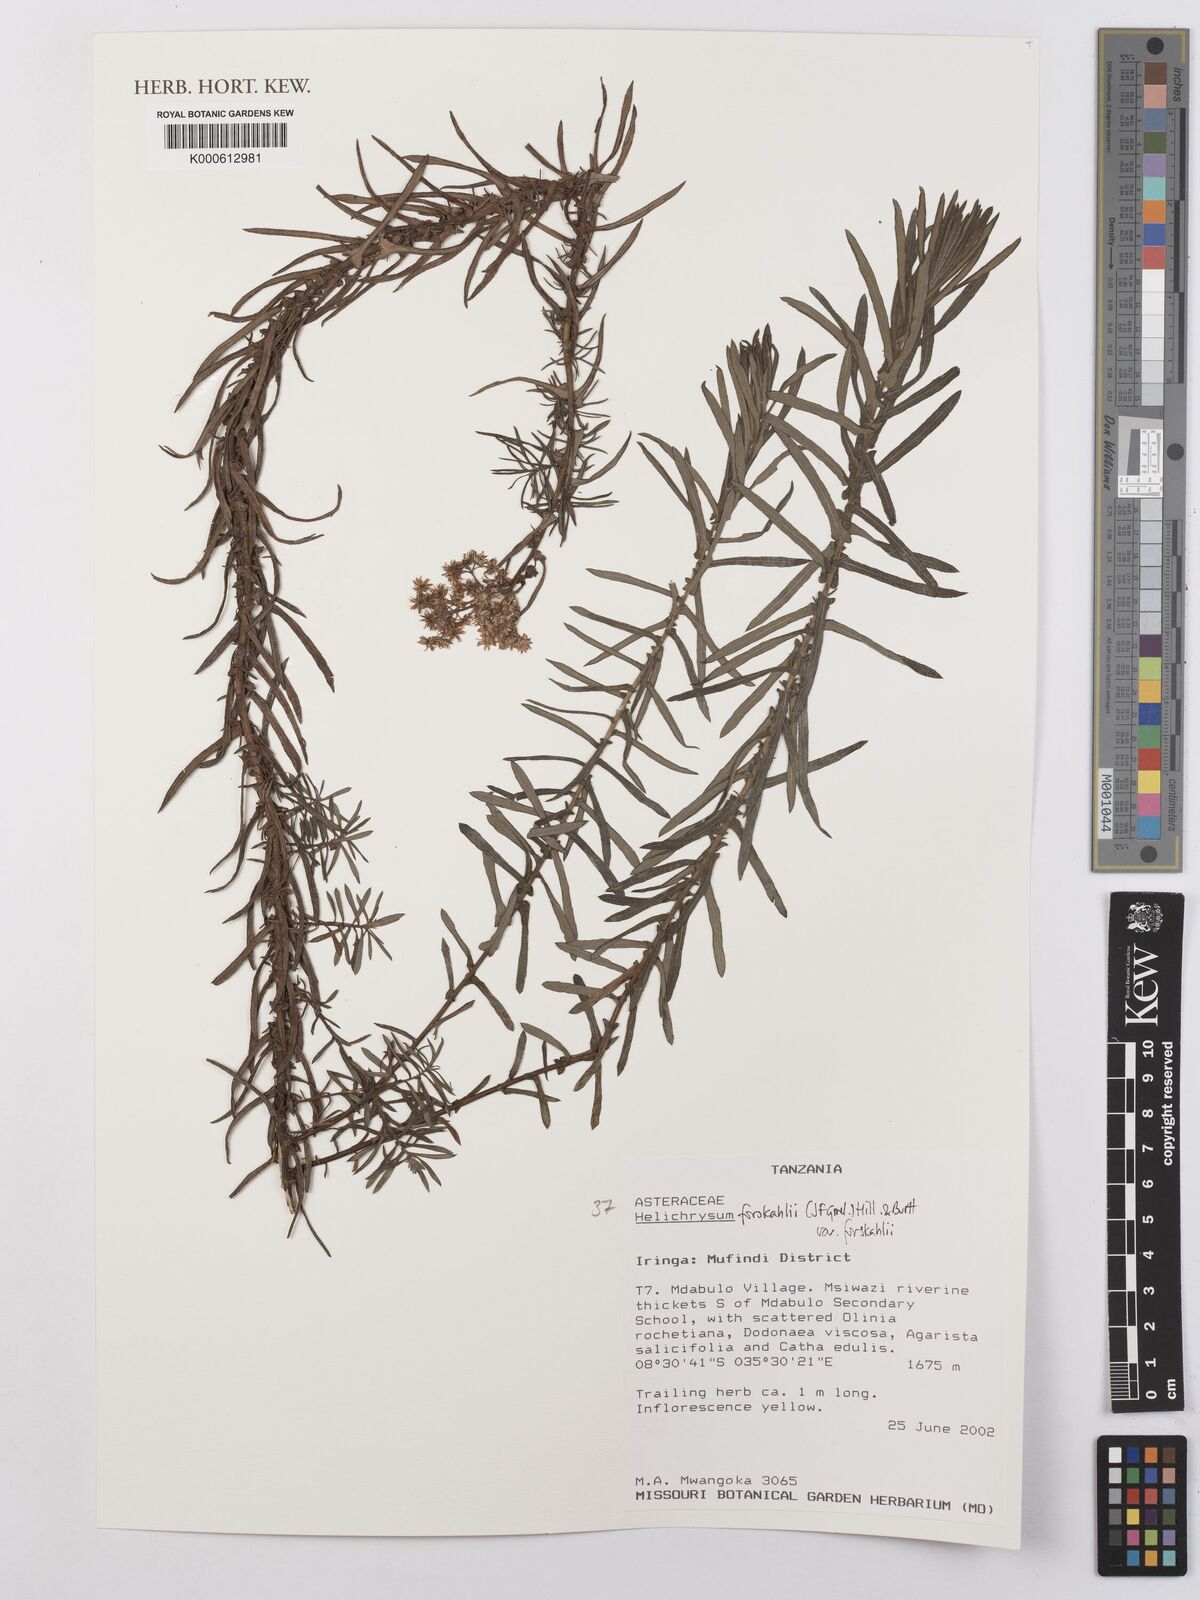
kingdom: Plantae
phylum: Tracheophyta
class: Magnoliopsida
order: Asterales
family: Asteraceae
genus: Helichrysum
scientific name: Helichrysum forskahlii
